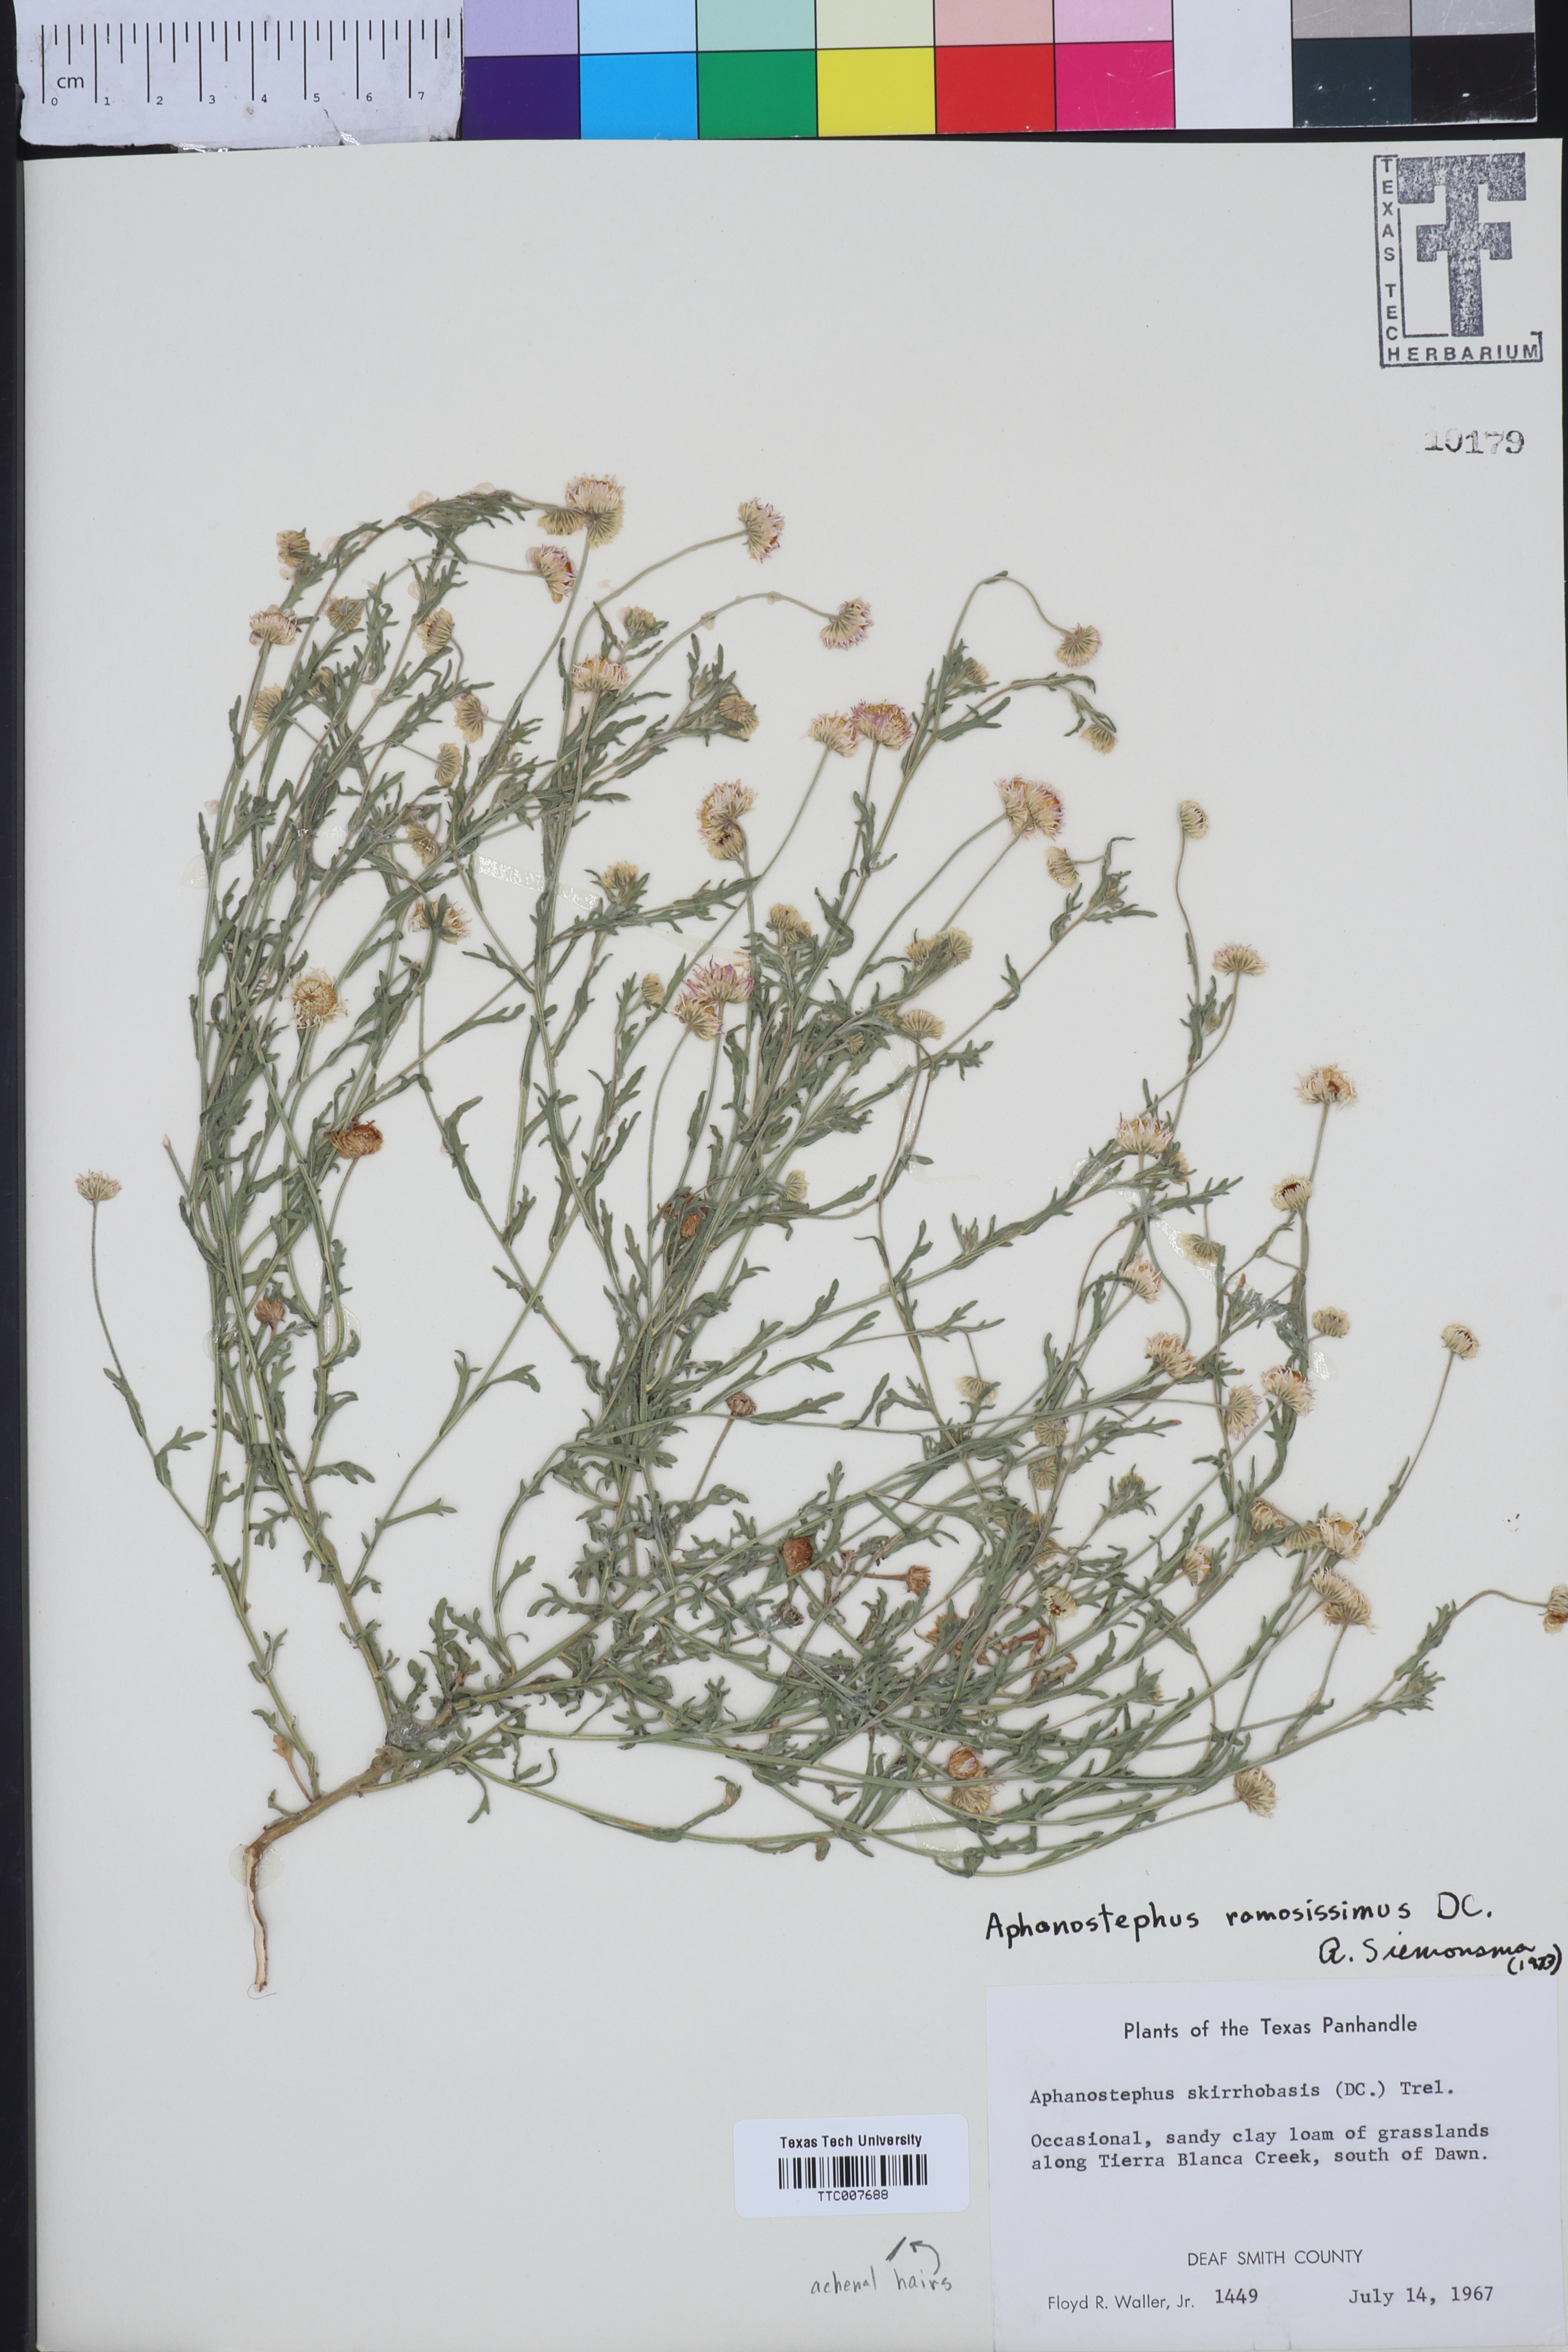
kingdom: Plantae
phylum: Tracheophyta
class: Magnoliopsida
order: Asterales
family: Asteraceae
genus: Aphanostephus
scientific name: Aphanostephus ramosissimus
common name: Plains lazy daisy
